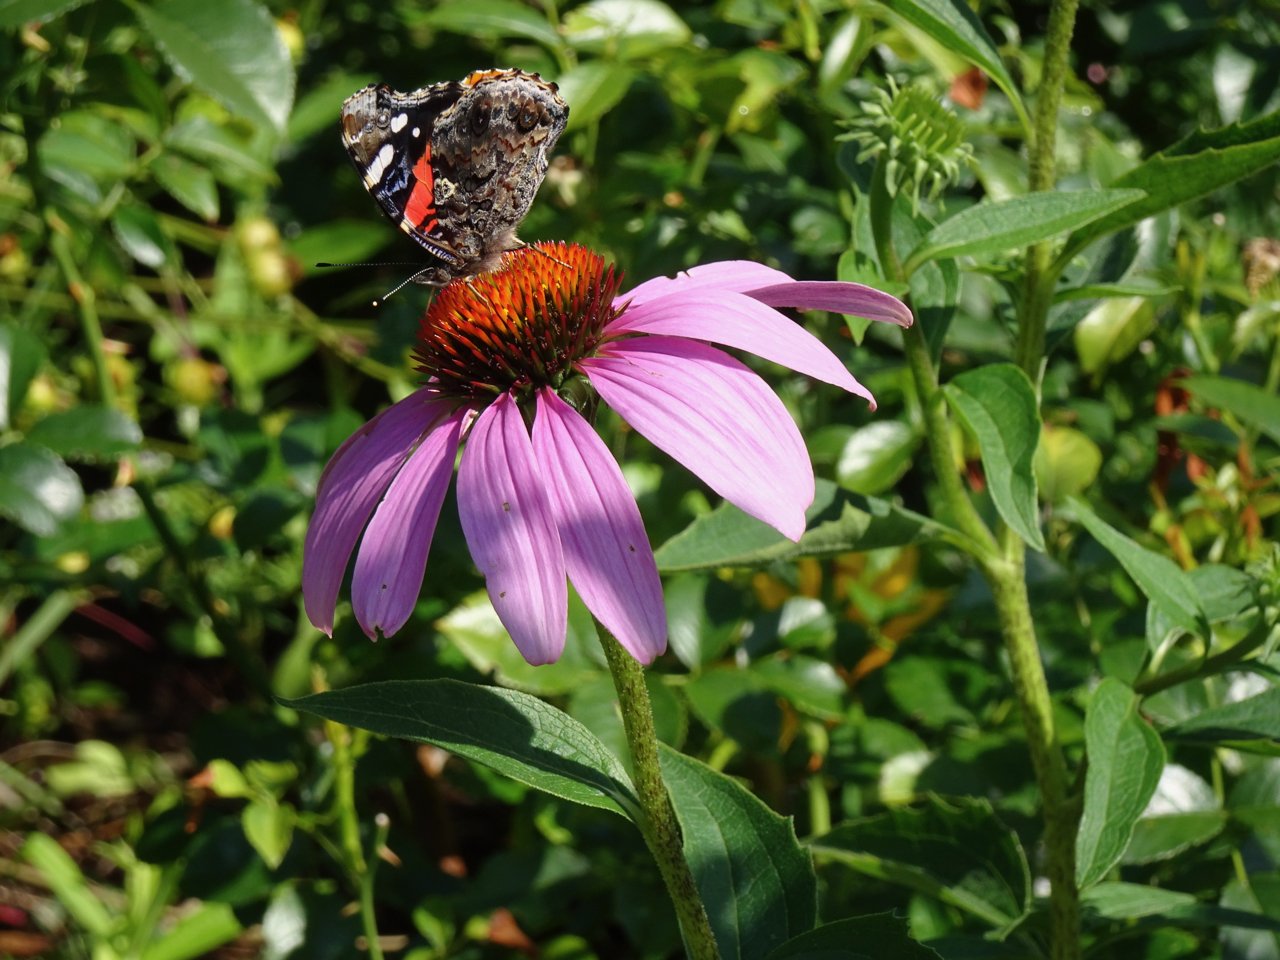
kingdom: Animalia
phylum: Arthropoda
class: Insecta
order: Lepidoptera
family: Nymphalidae
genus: Vanessa
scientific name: Vanessa atalanta
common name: Red Admiral
